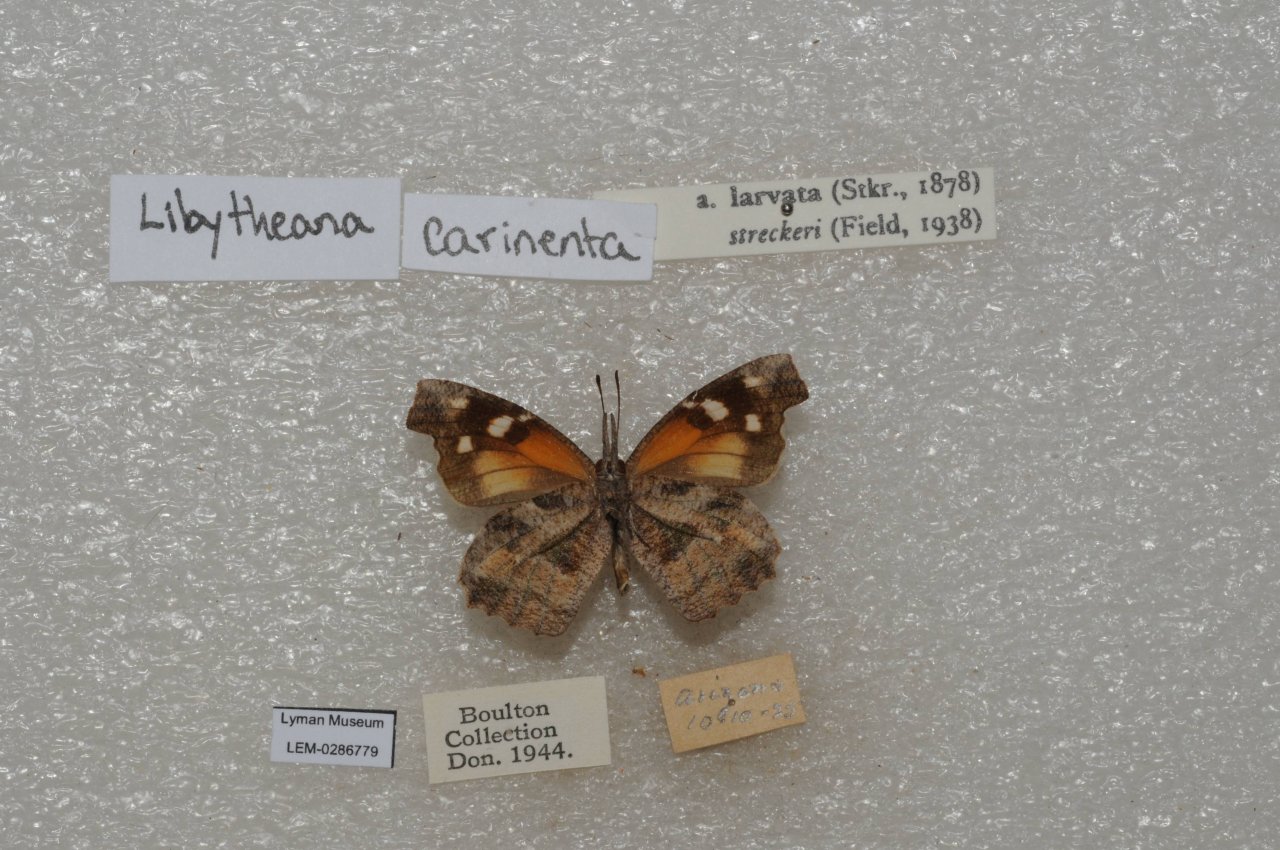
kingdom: Animalia
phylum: Arthropoda
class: Insecta
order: Lepidoptera
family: Nymphalidae
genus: Libytheana
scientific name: Libytheana carinenta
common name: American Snout
